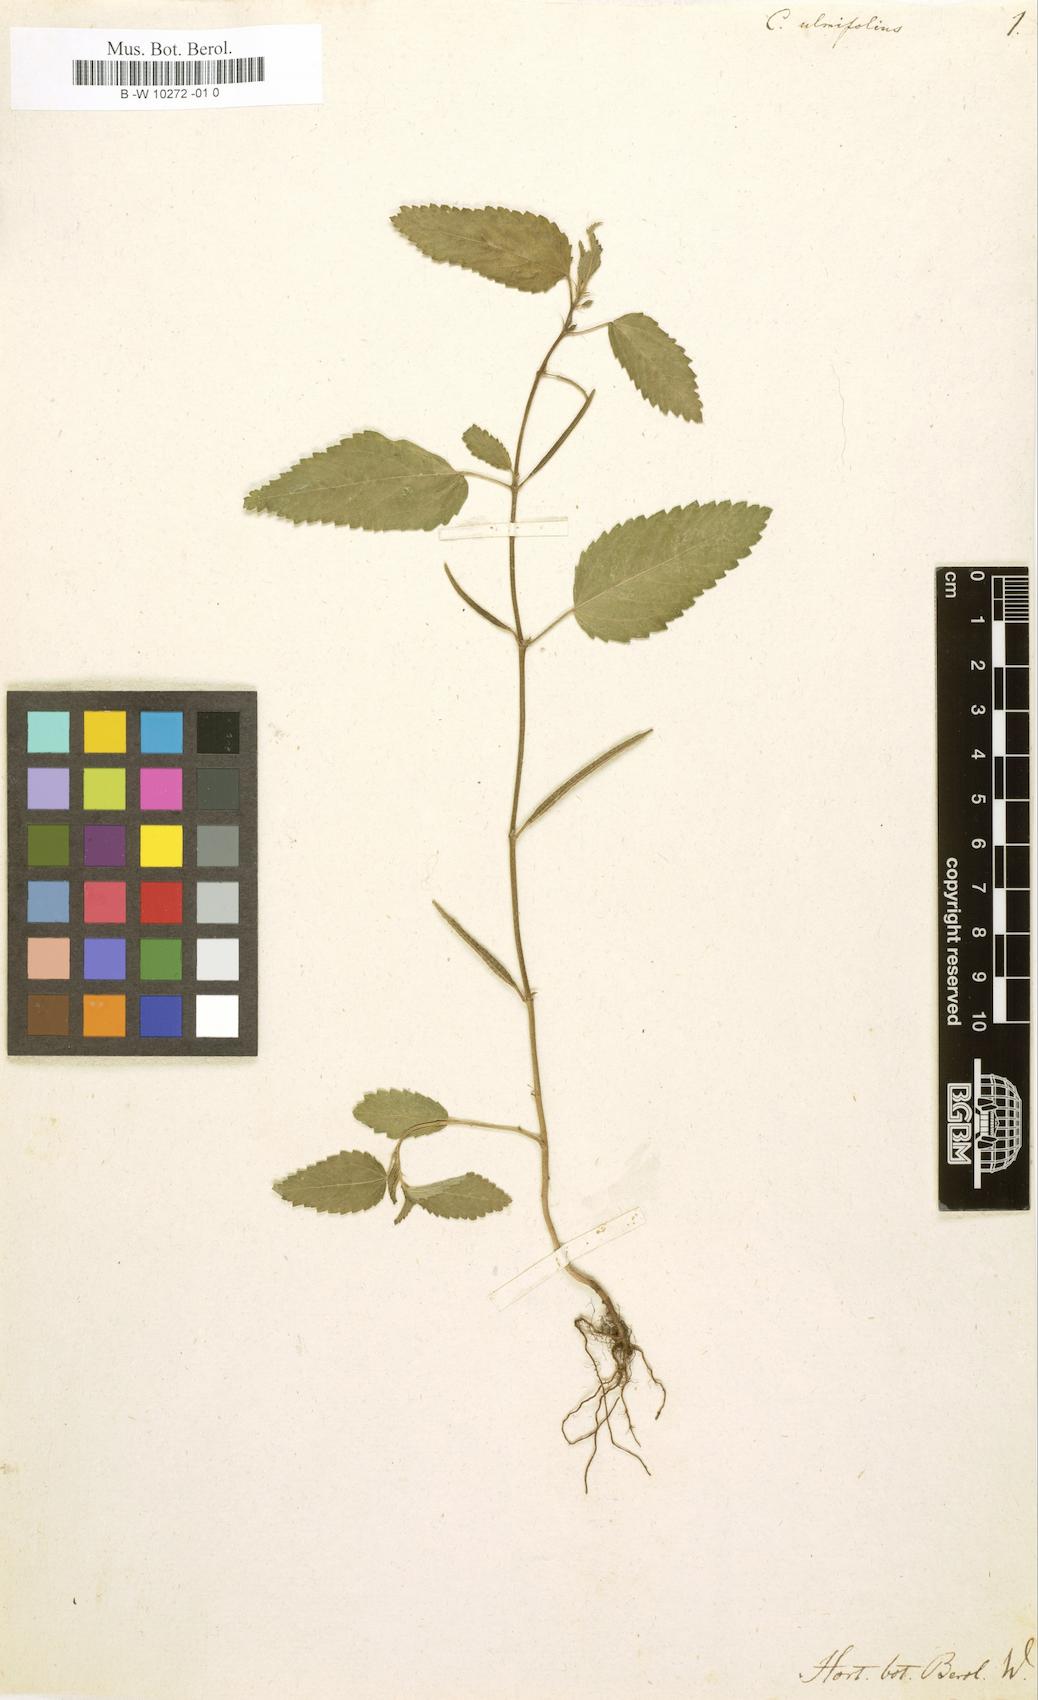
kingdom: Plantae
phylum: Tracheophyta
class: Magnoliopsida
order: Malvales
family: Malvaceae
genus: Corchorus
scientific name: Corchorus
